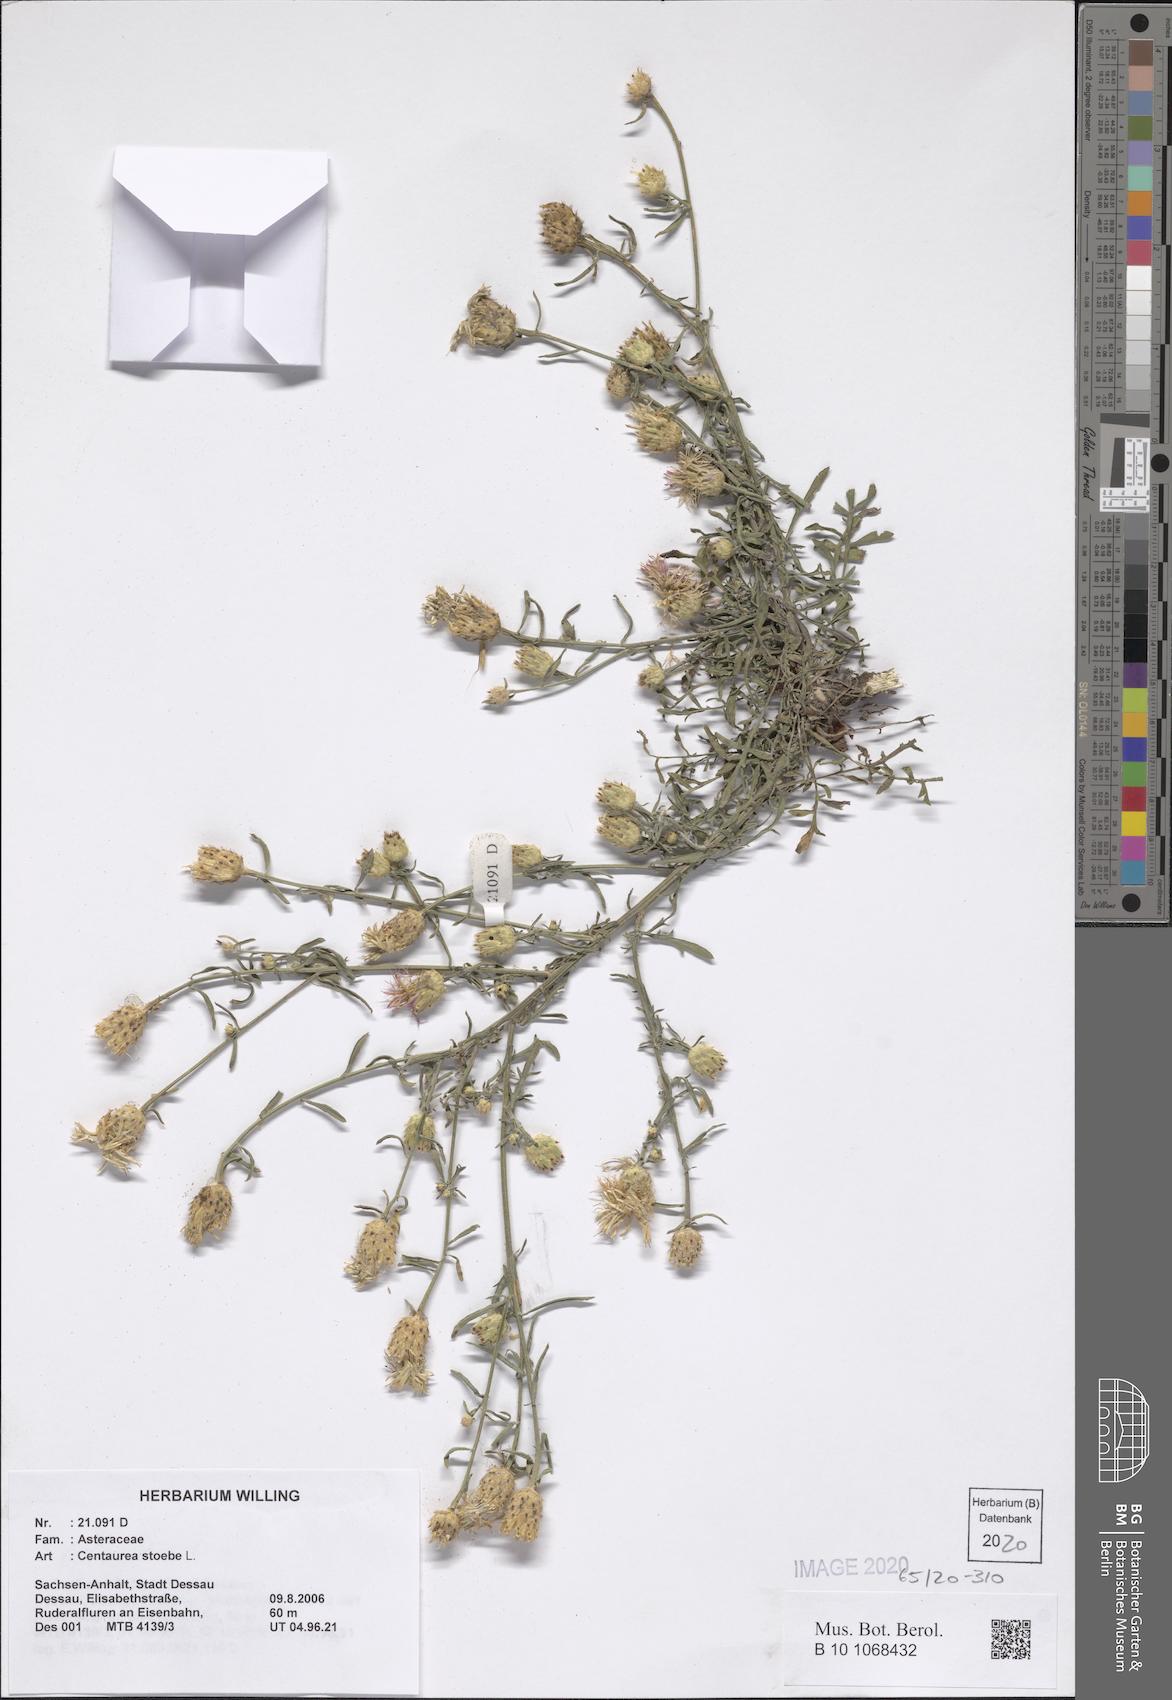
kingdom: Plantae
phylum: Tracheophyta
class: Magnoliopsida
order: Asterales
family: Asteraceae
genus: Centaurea
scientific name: Centaurea stoebe
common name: Spotted knapweed
